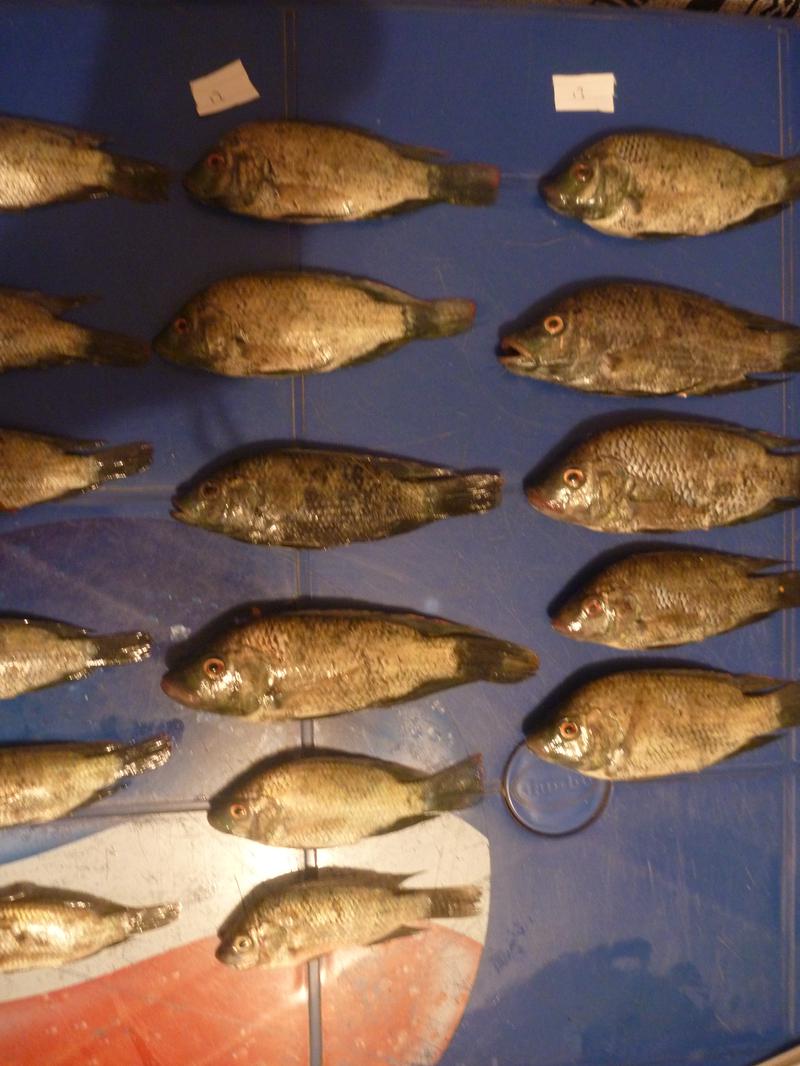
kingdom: Animalia
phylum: Chordata
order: Perciformes
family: Cichlidae
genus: Oreochromis
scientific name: Oreochromis urolepis
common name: Wami tilapia
